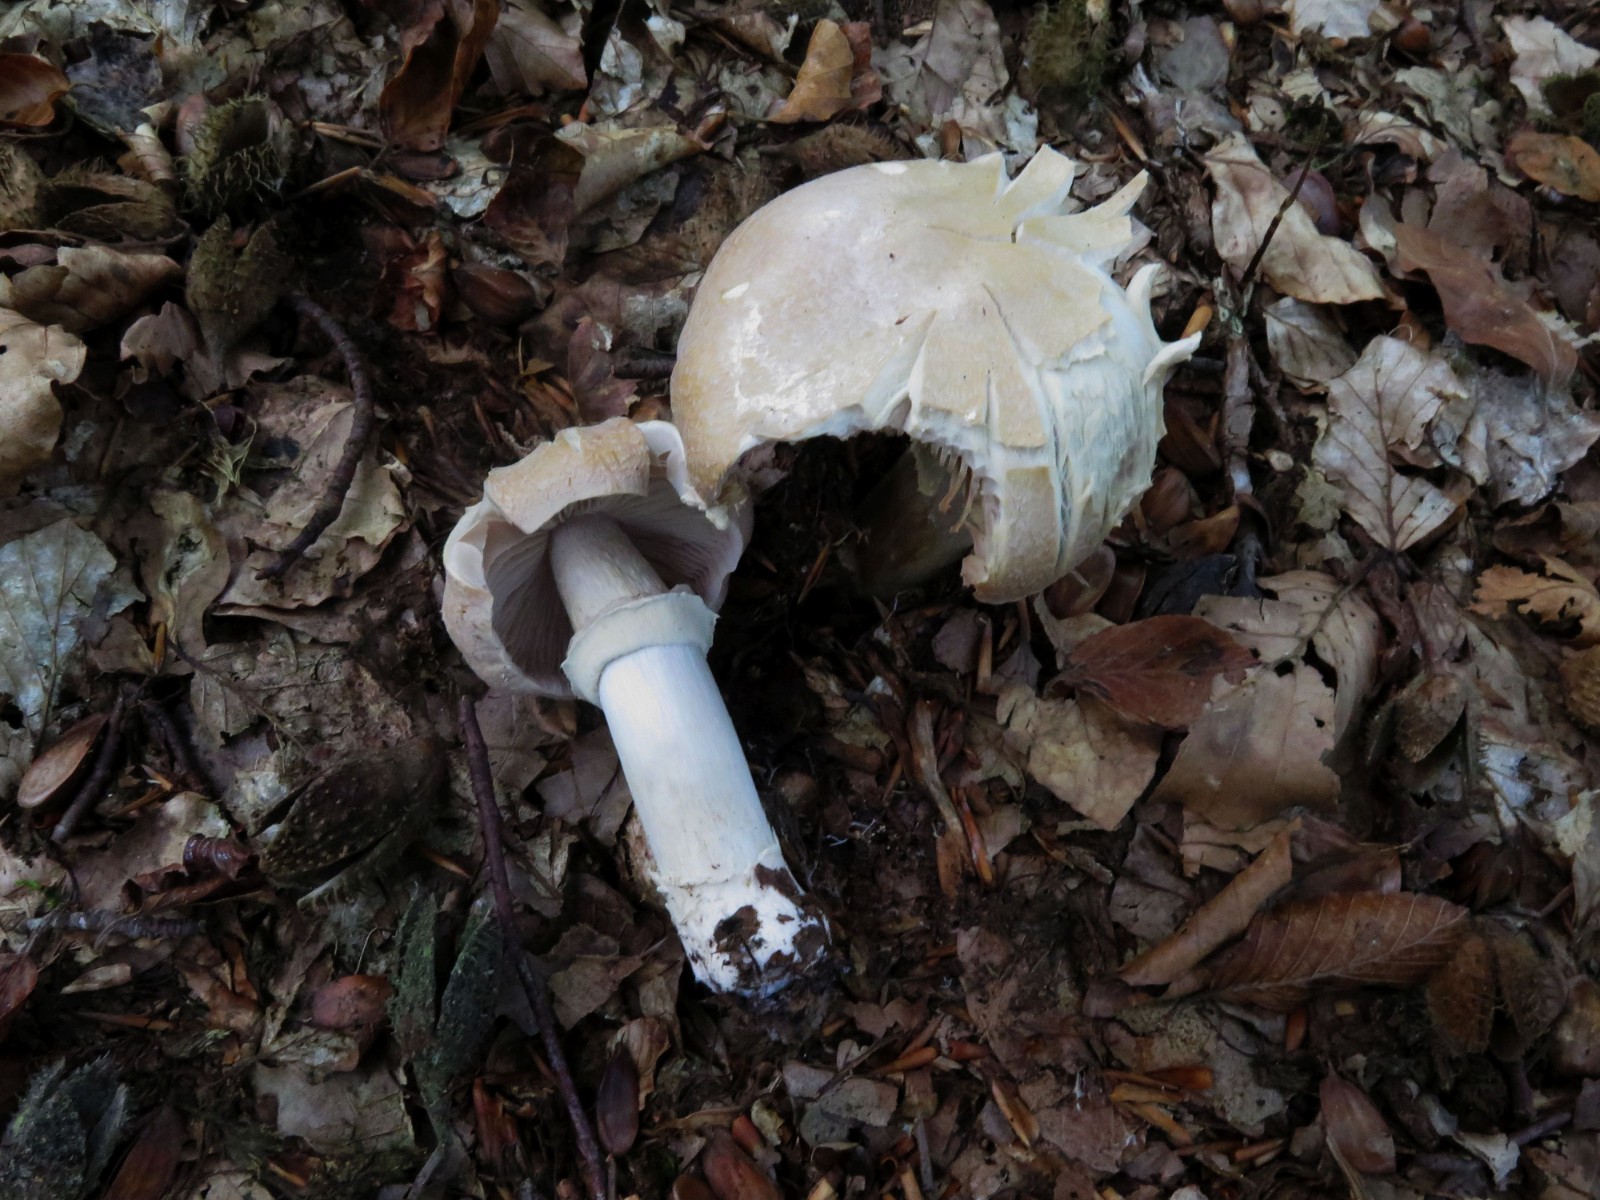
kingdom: Fungi
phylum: Basidiomycota
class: Agaricomycetes
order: Agaricales
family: Cortinariaceae
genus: Cortinarius
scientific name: Cortinarius caperatus
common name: klidhat
